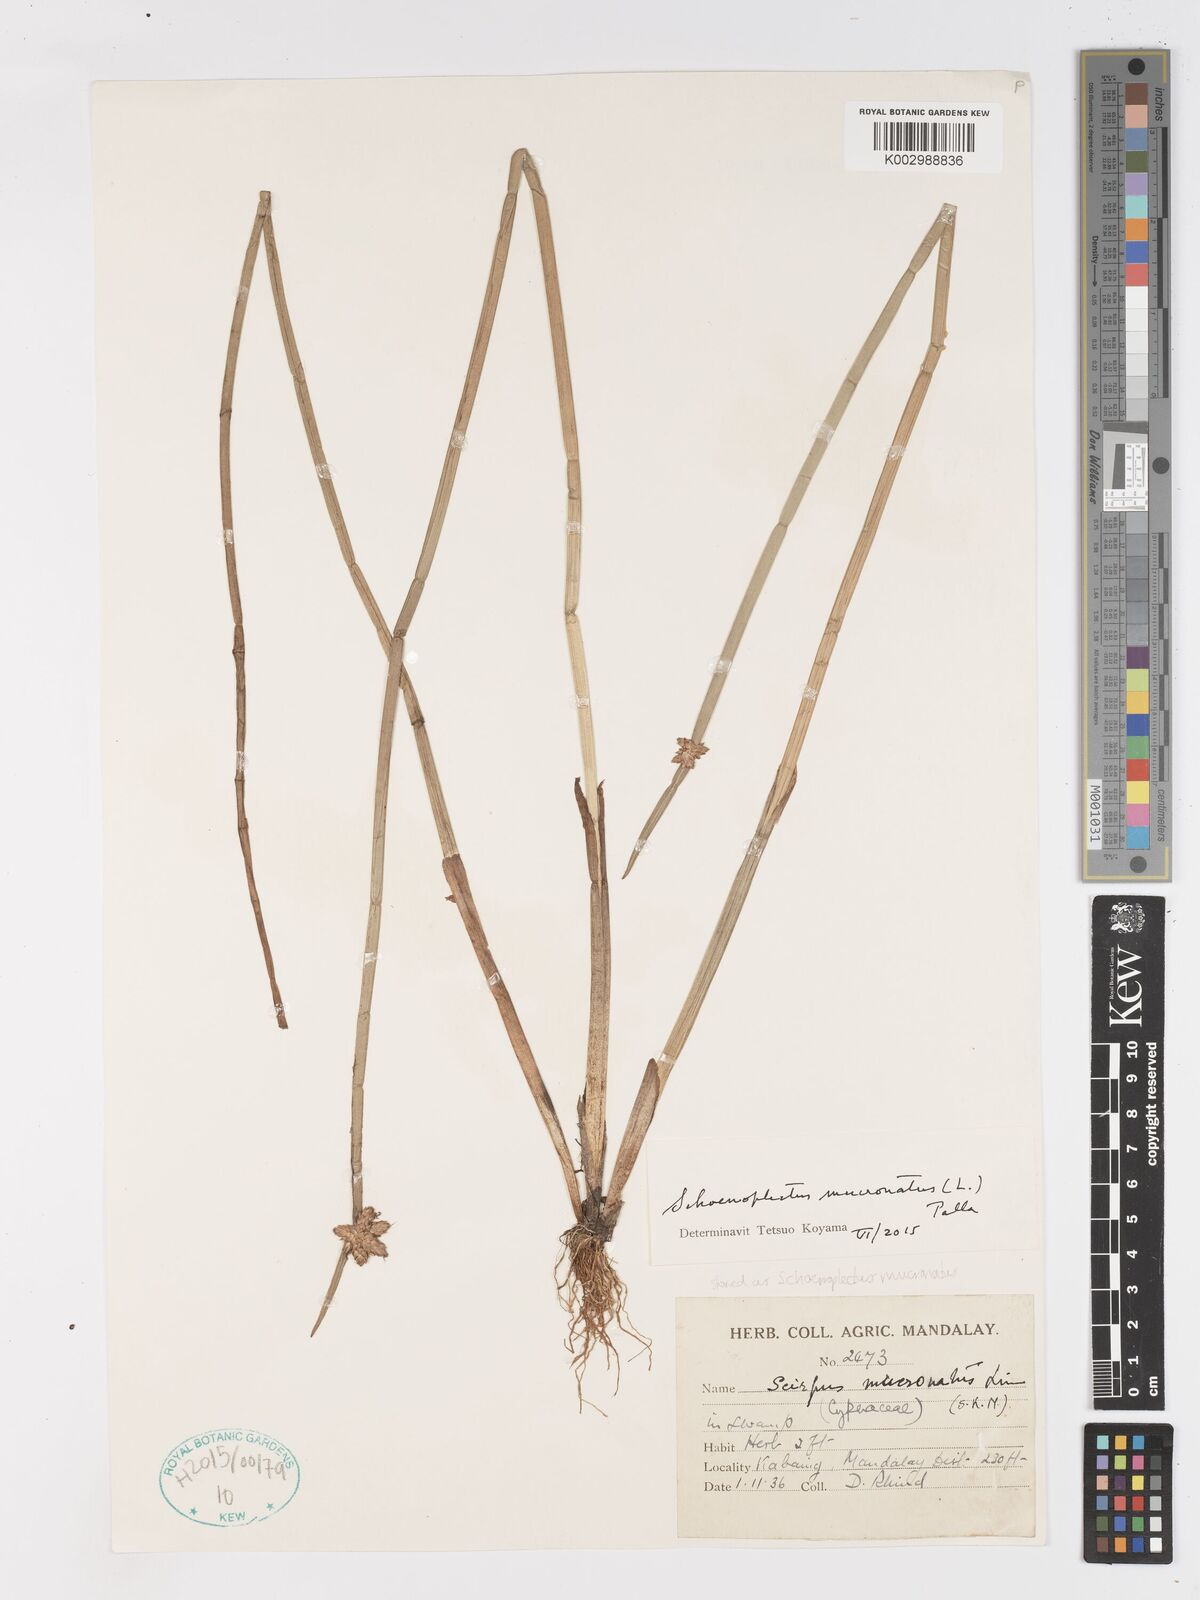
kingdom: Plantae
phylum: Tracheophyta
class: Liliopsida
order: Poales
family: Cyperaceae
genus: Schoenoplectiella
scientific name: Schoenoplectiella mucronata
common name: Bog bulrush
